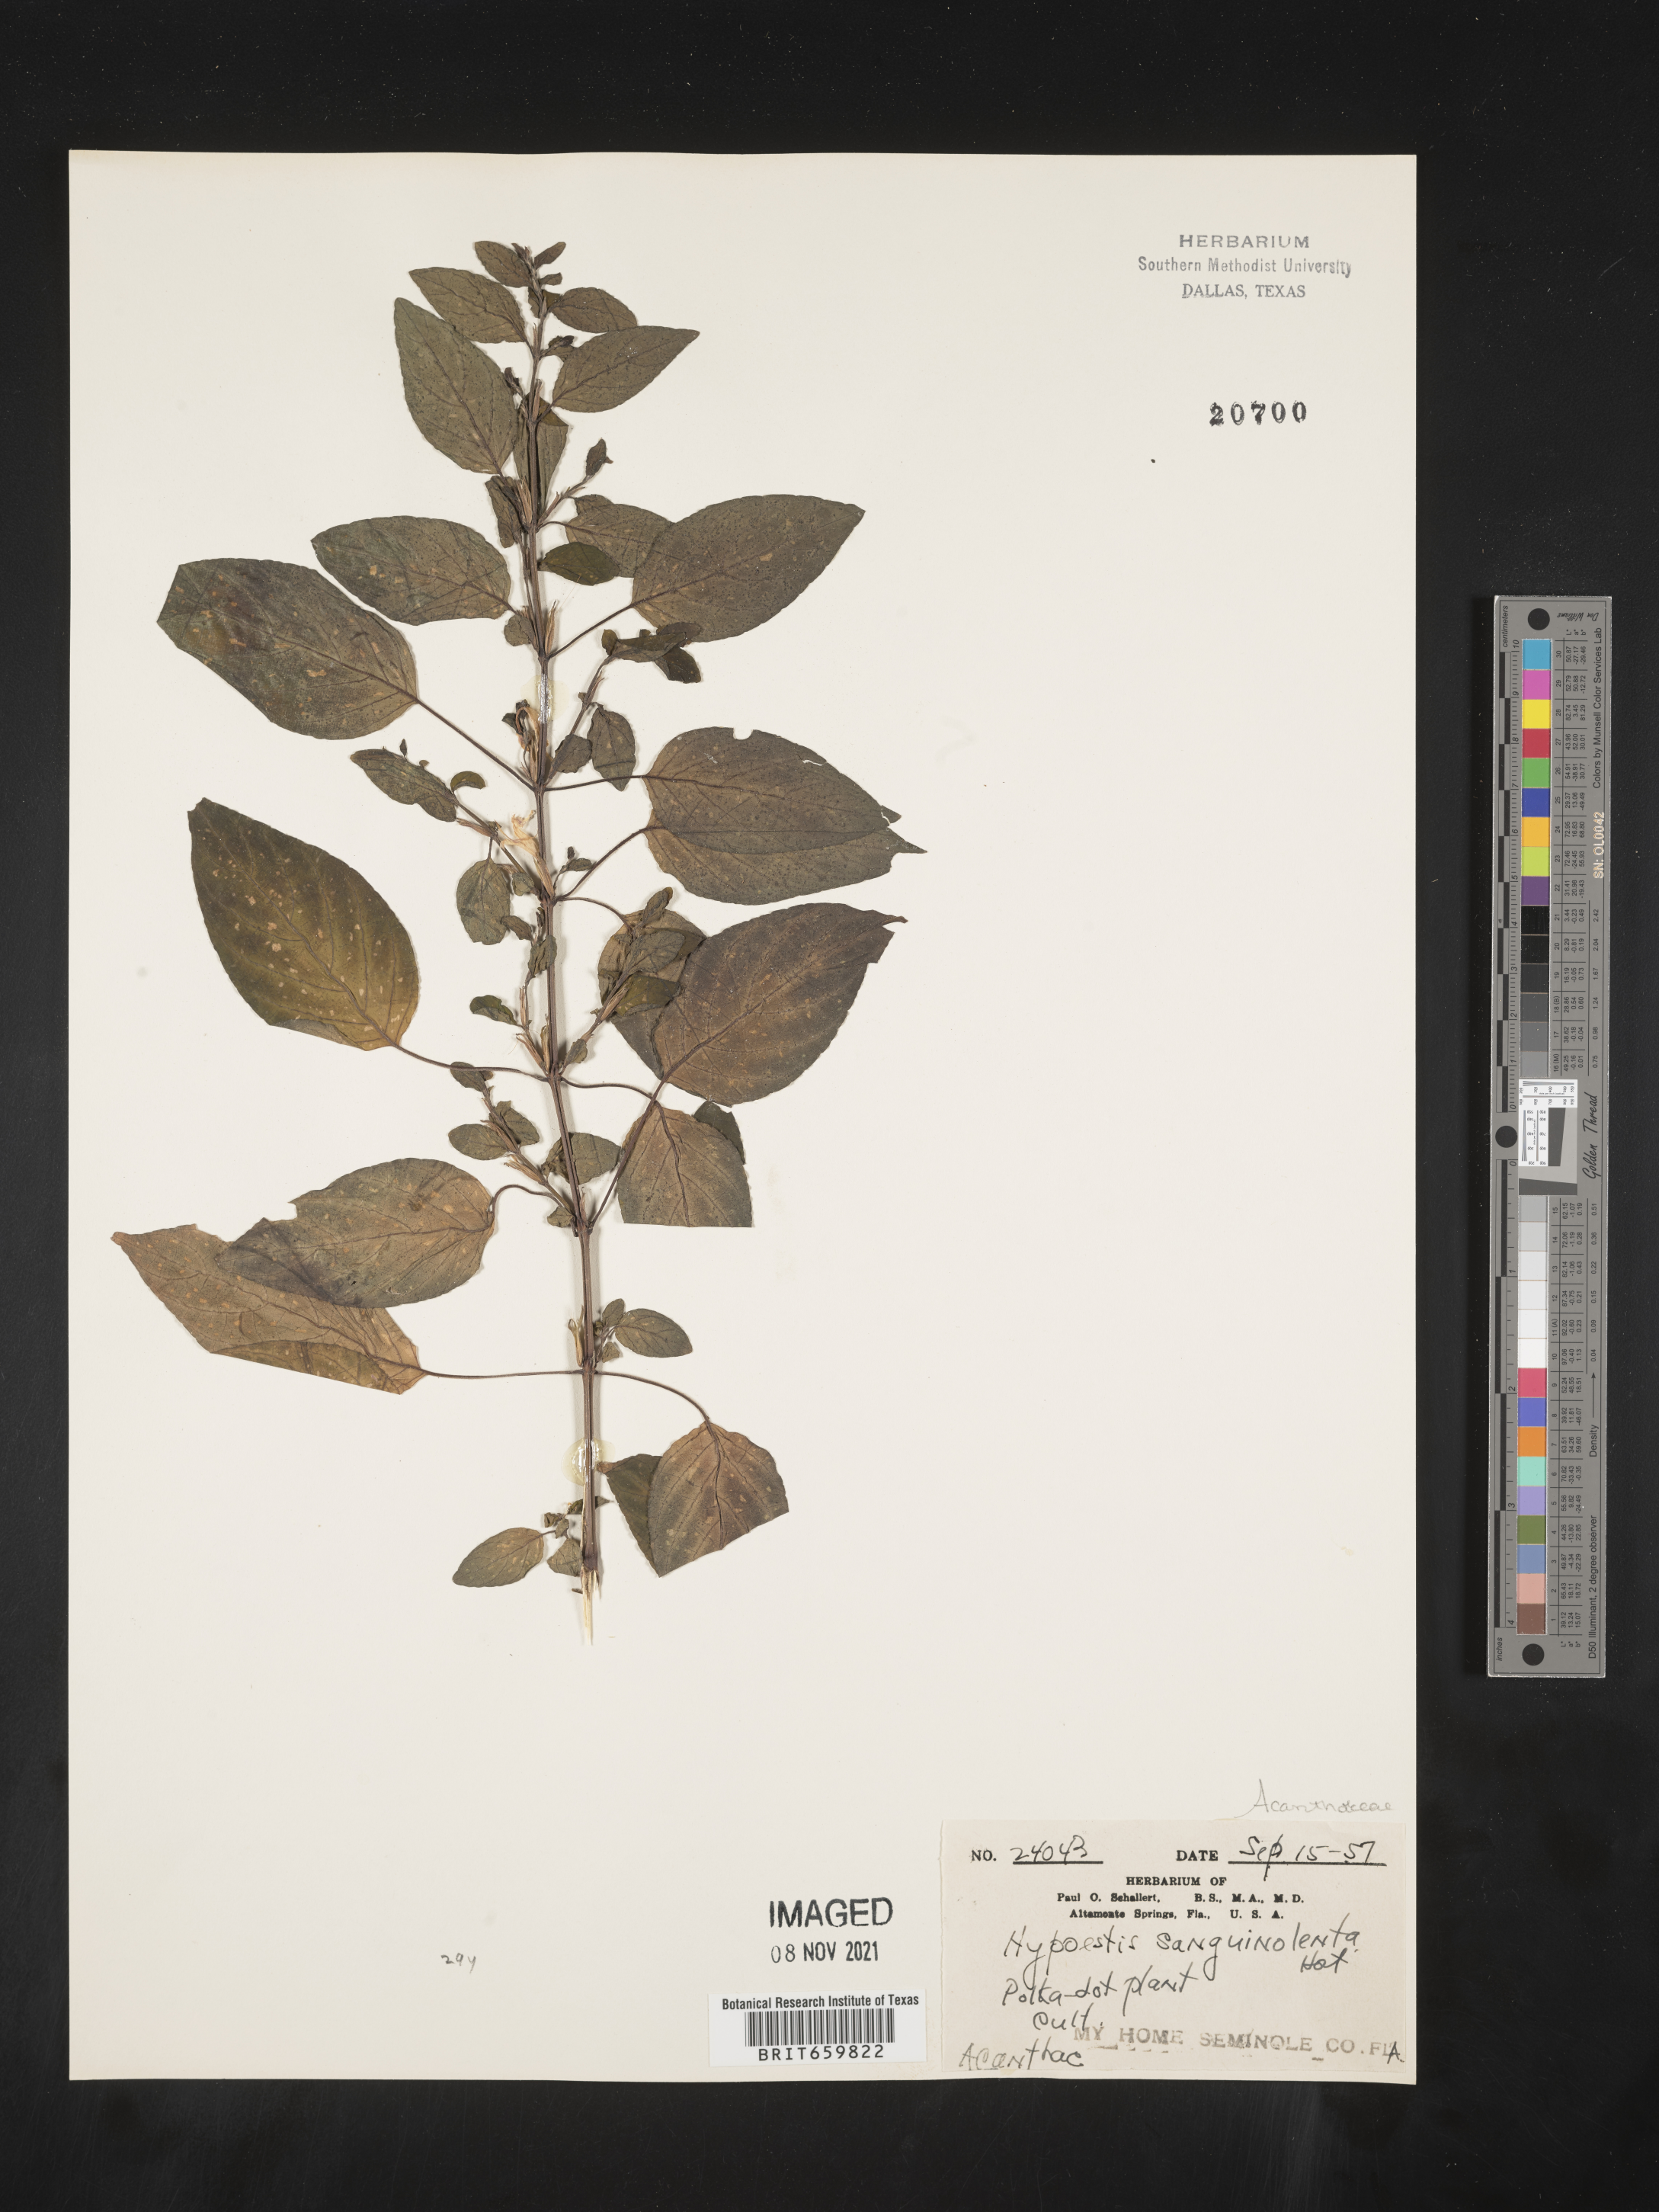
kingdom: Plantae
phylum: Tracheophyta
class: Magnoliopsida
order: Lamiales
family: Acanthaceae
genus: Hypoestes
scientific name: Hypoestes
